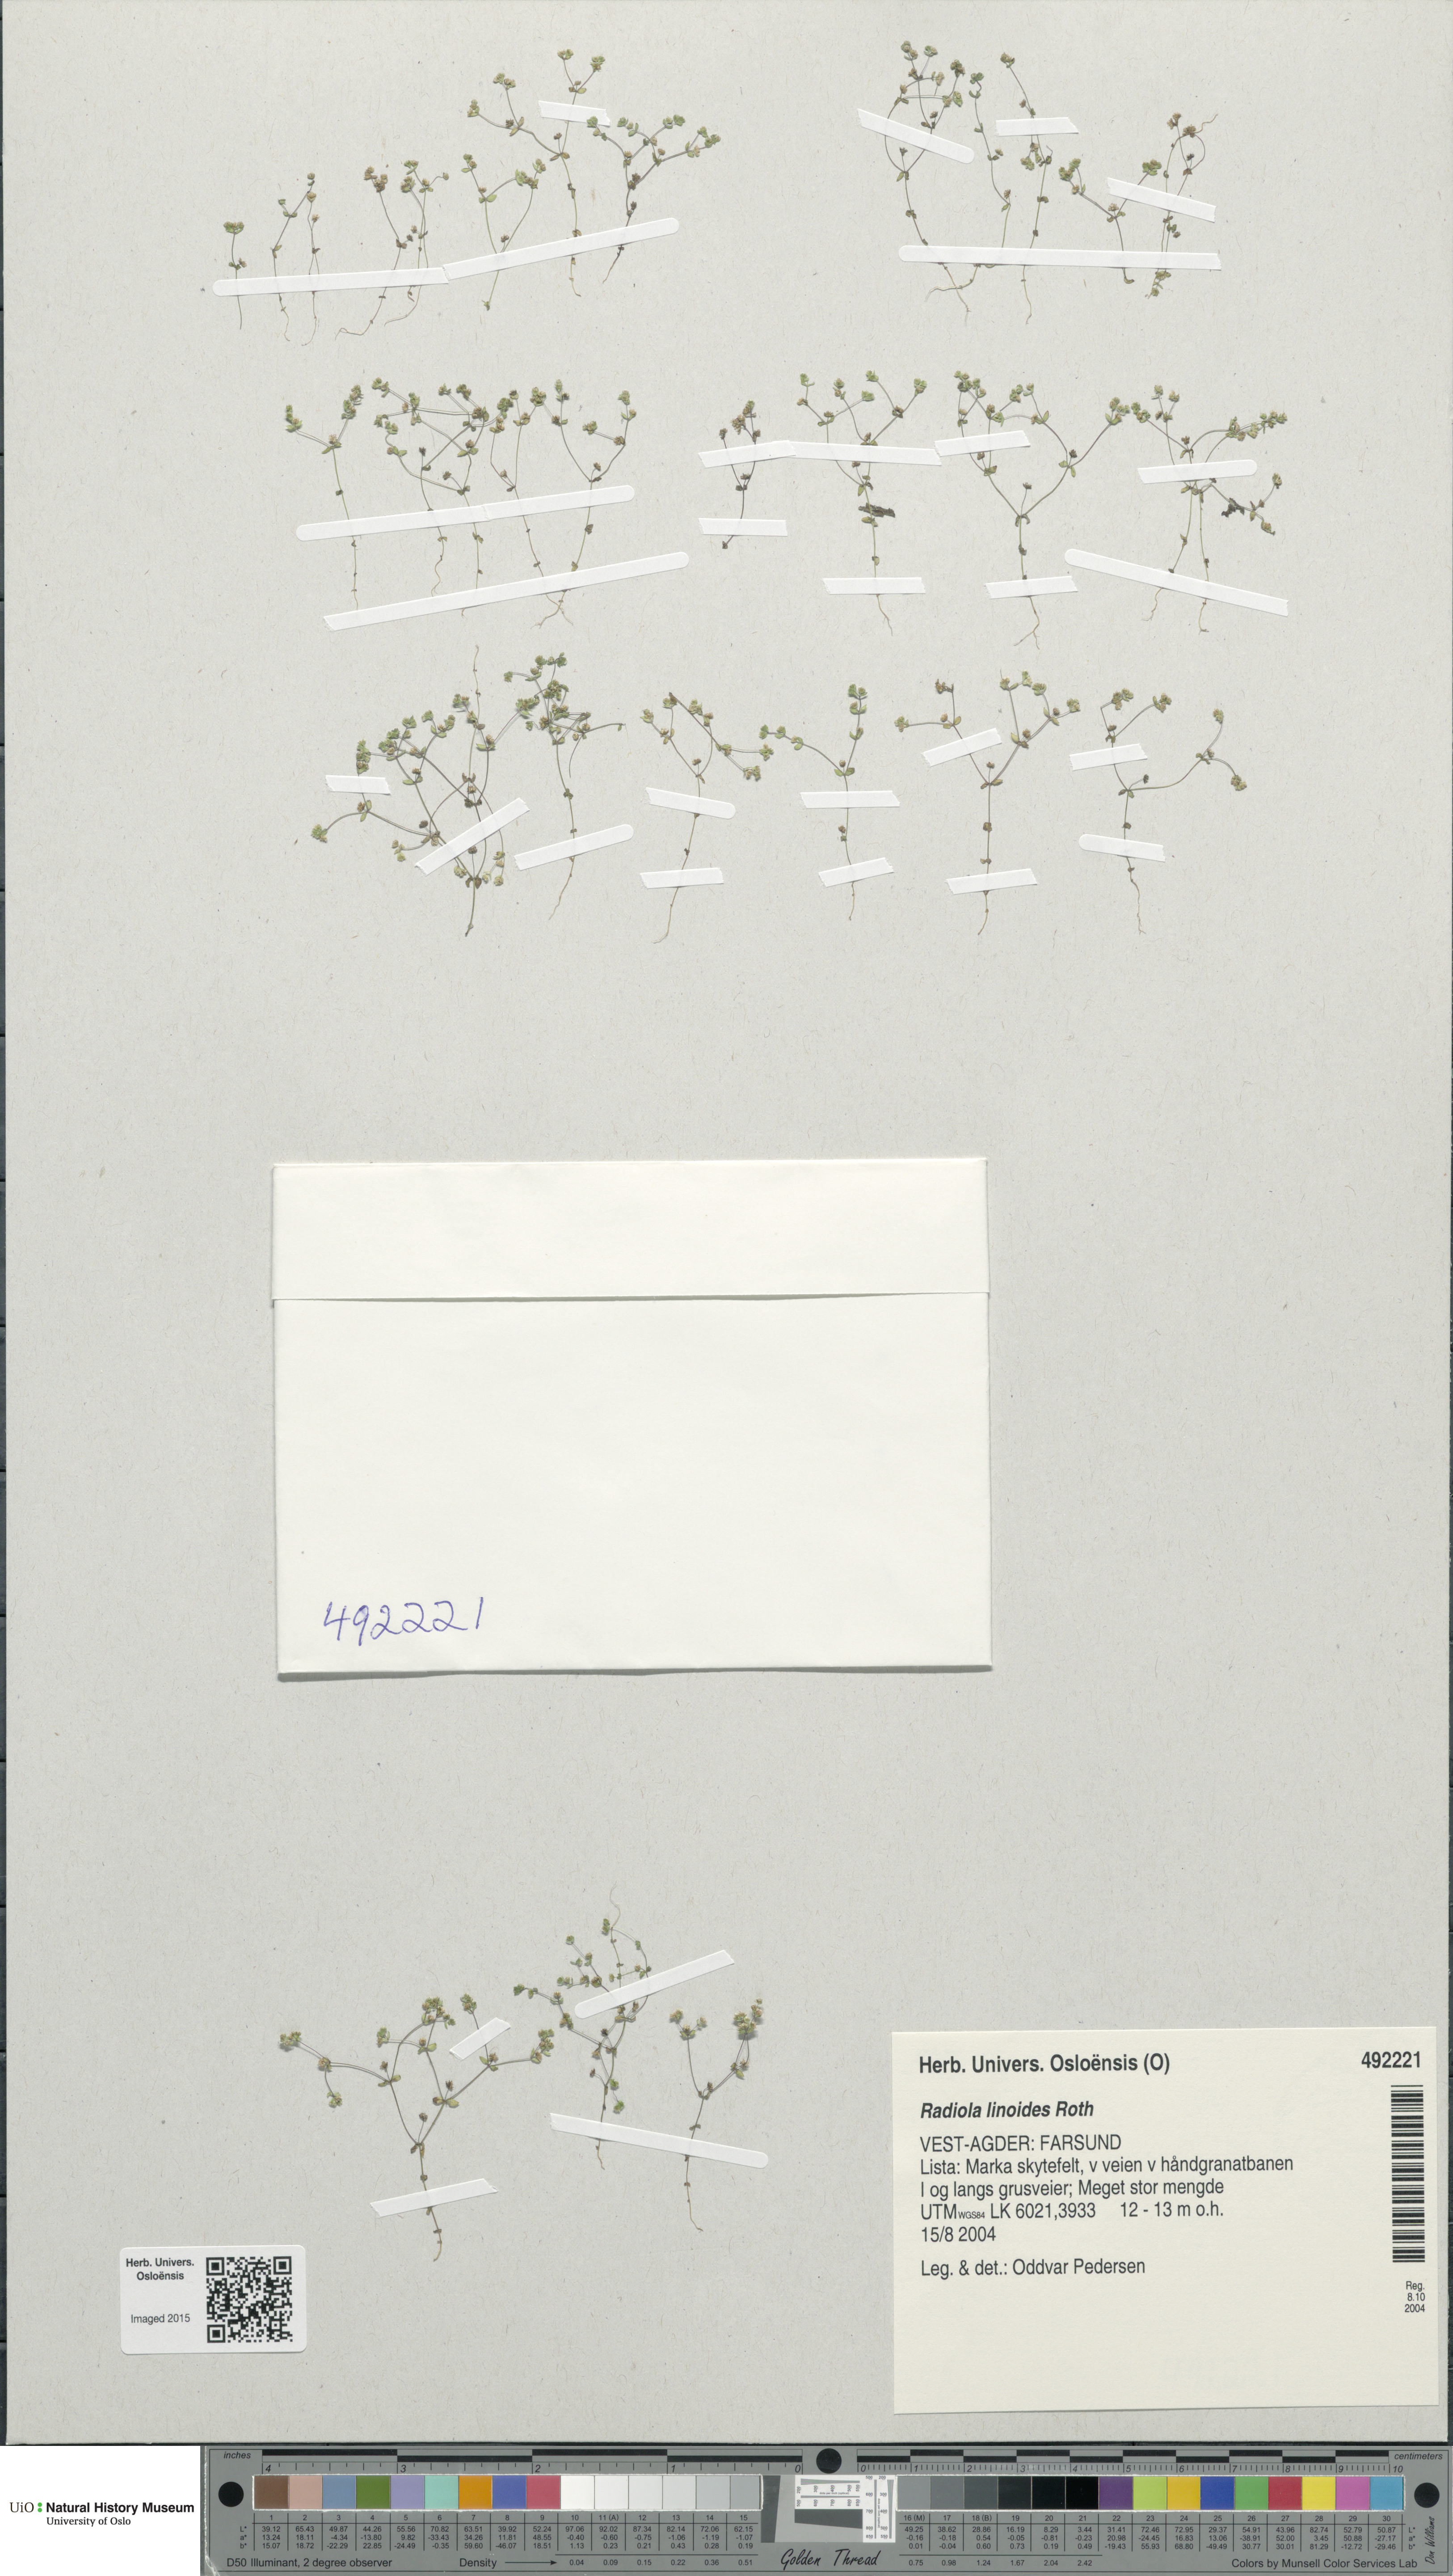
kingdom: Plantae
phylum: Tracheophyta
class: Magnoliopsida
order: Malpighiales
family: Linaceae
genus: Radiola
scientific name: Radiola linoides
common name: Allseed
